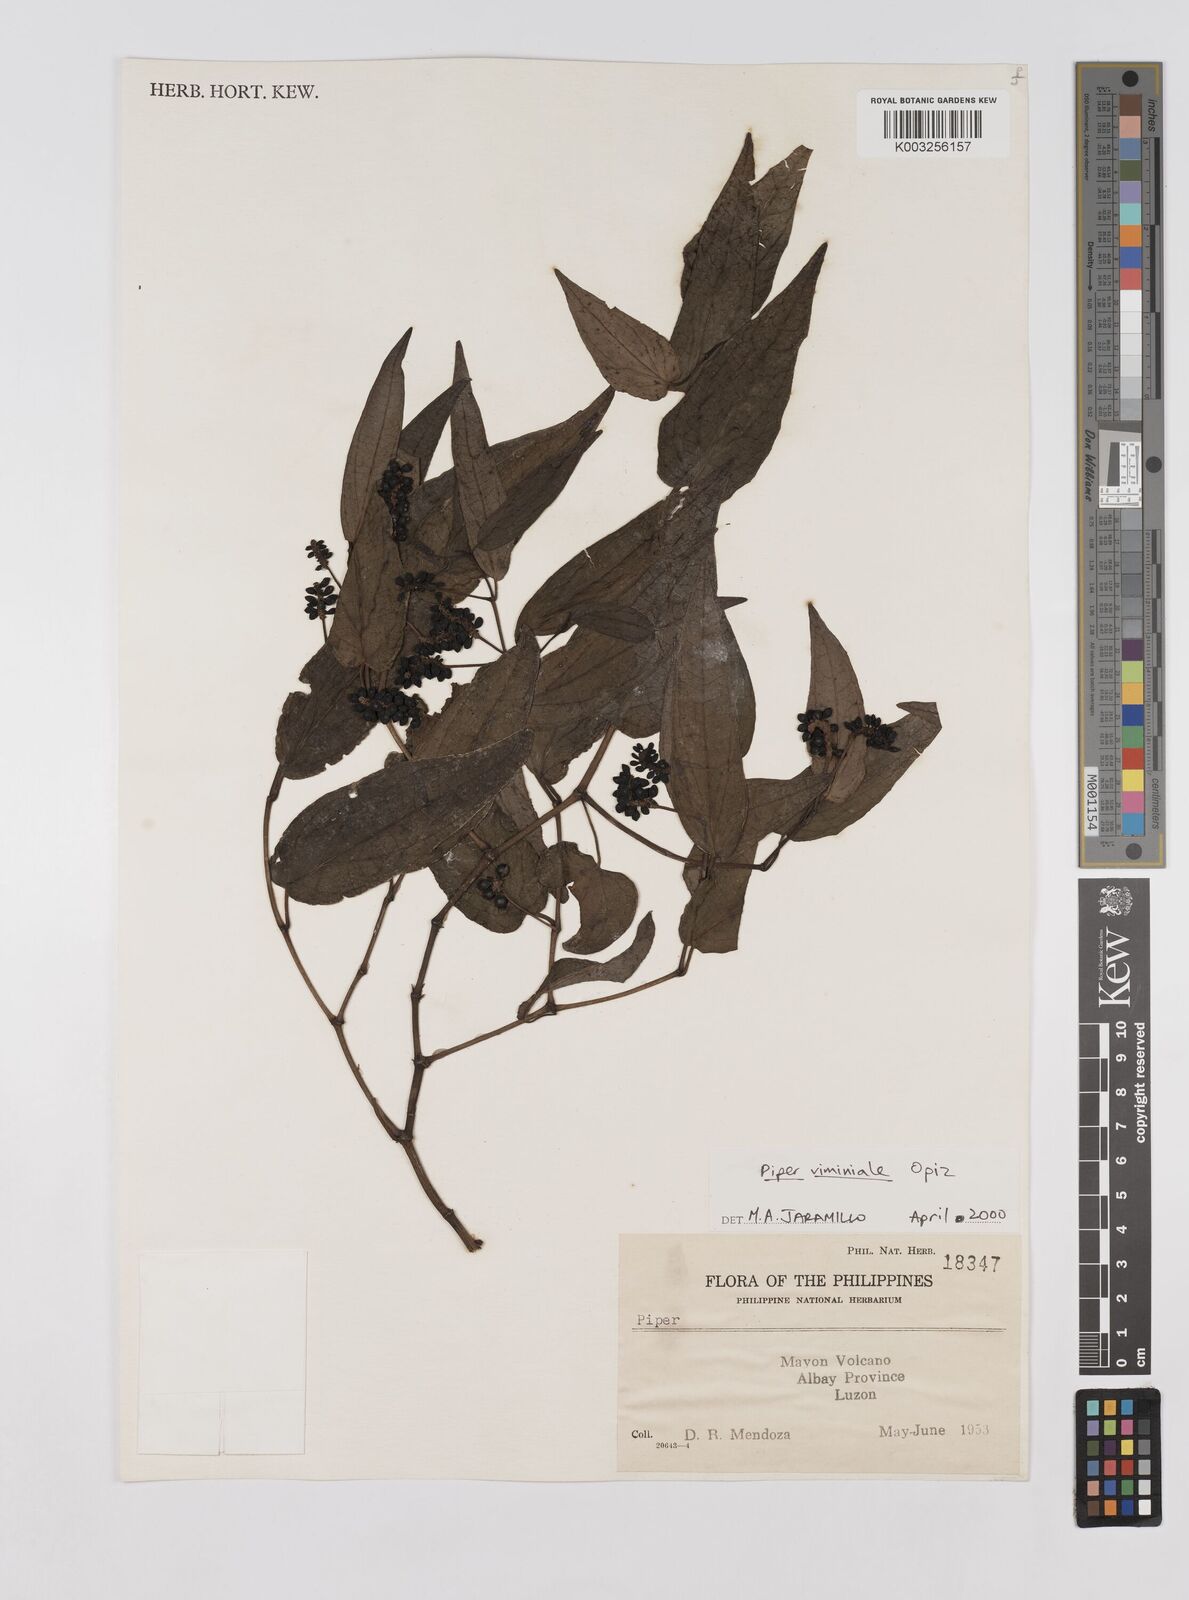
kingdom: Plantae
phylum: Tracheophyta
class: Magnoliopsida
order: Piperales
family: Piperaceae
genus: Piper
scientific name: Piper lanatum
